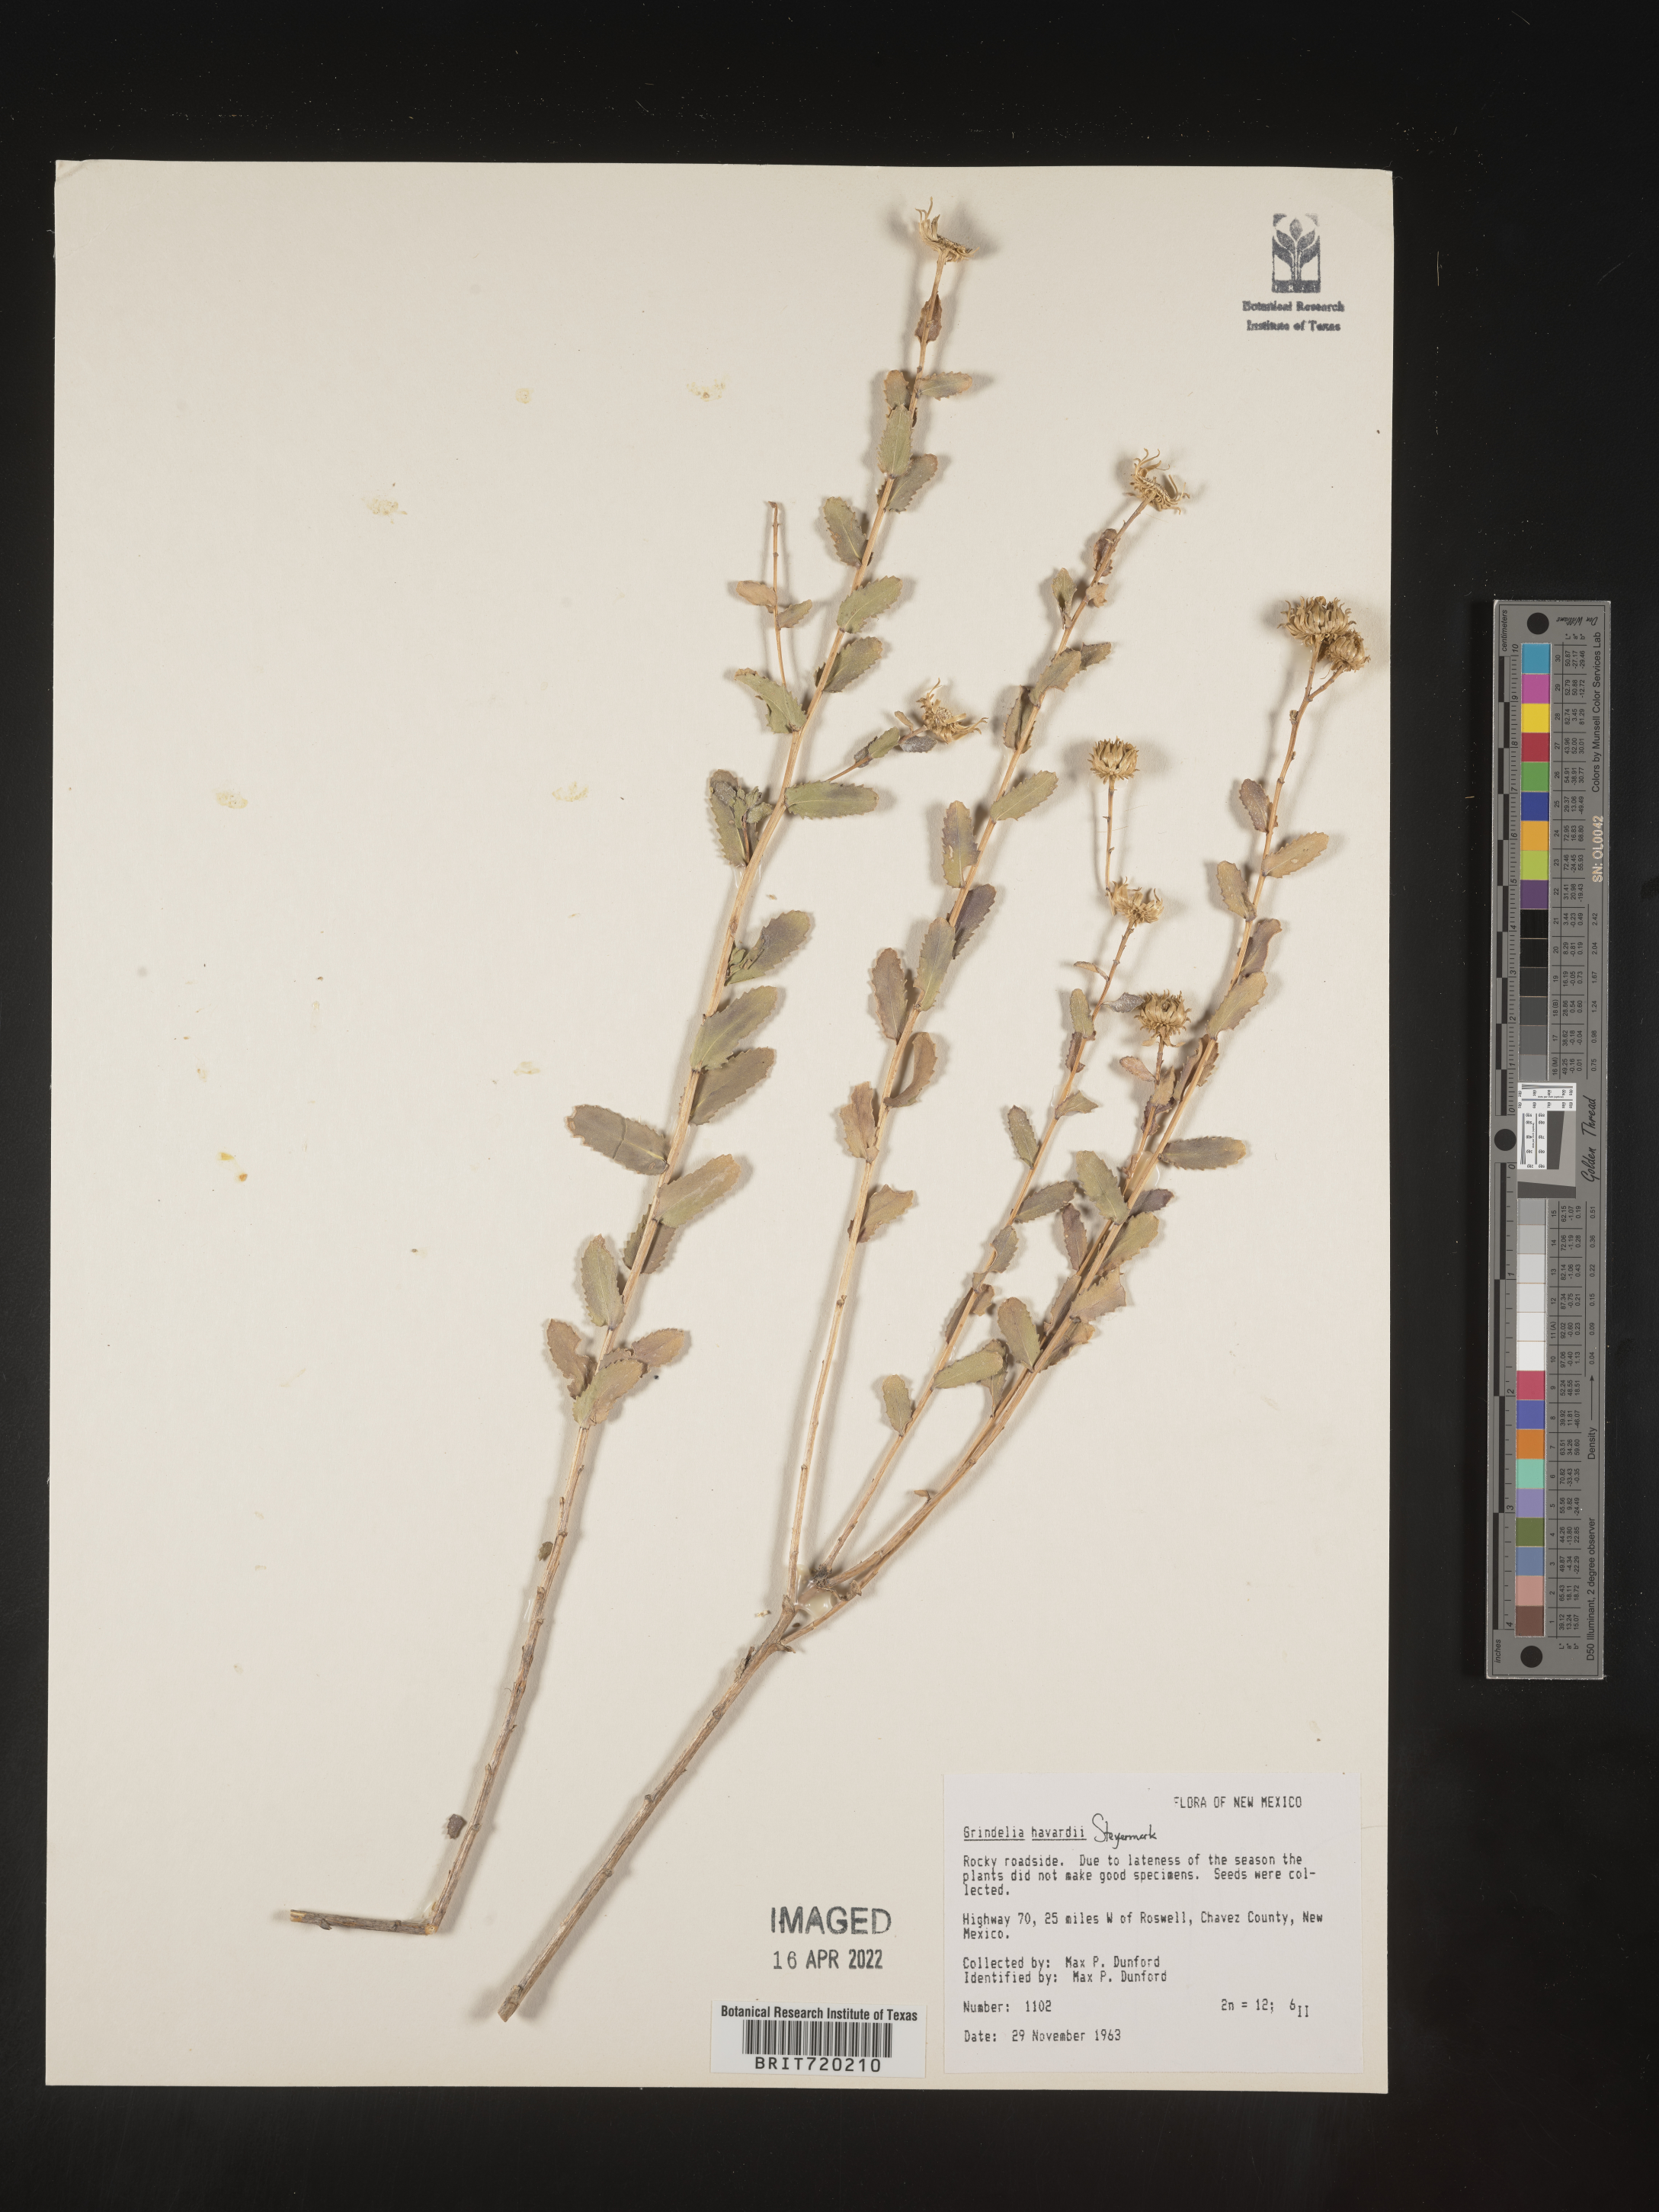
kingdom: Plantae
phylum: Tracheophyta
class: Magnoliopsida
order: Asterales
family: Asteraceae
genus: Grindelia
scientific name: Grindelia havardii
